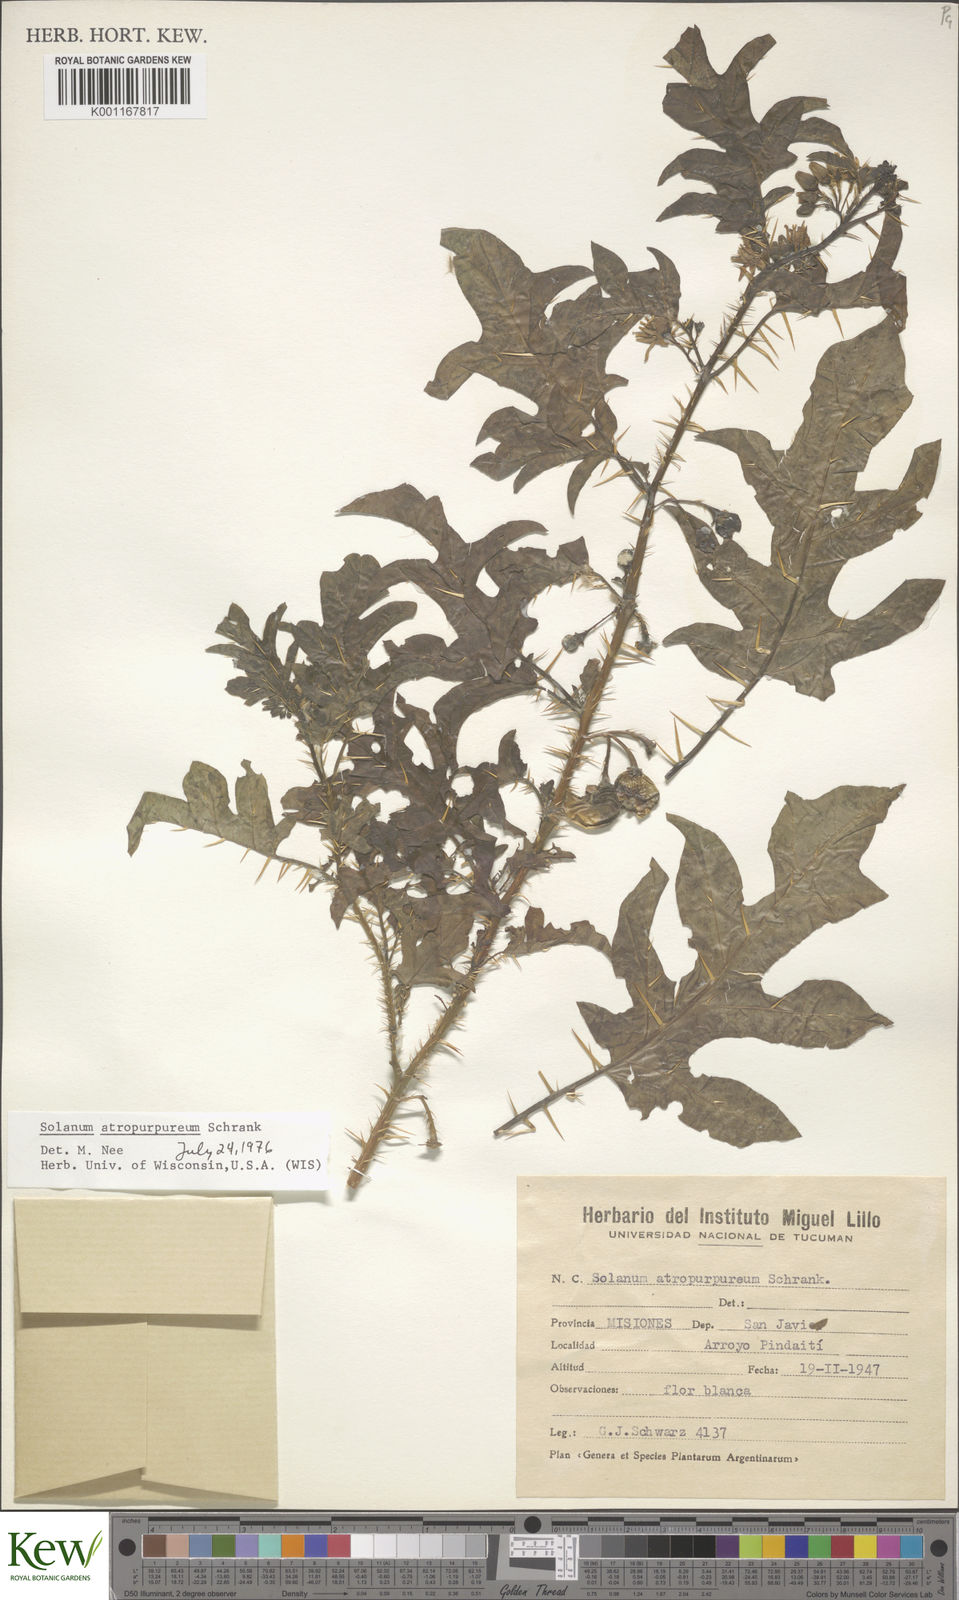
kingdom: Plantae
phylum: Tracheophyta
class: Magnoliopsida
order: Solanales
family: Solanaceae
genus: Solanum
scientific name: Solanum atropurpureum
